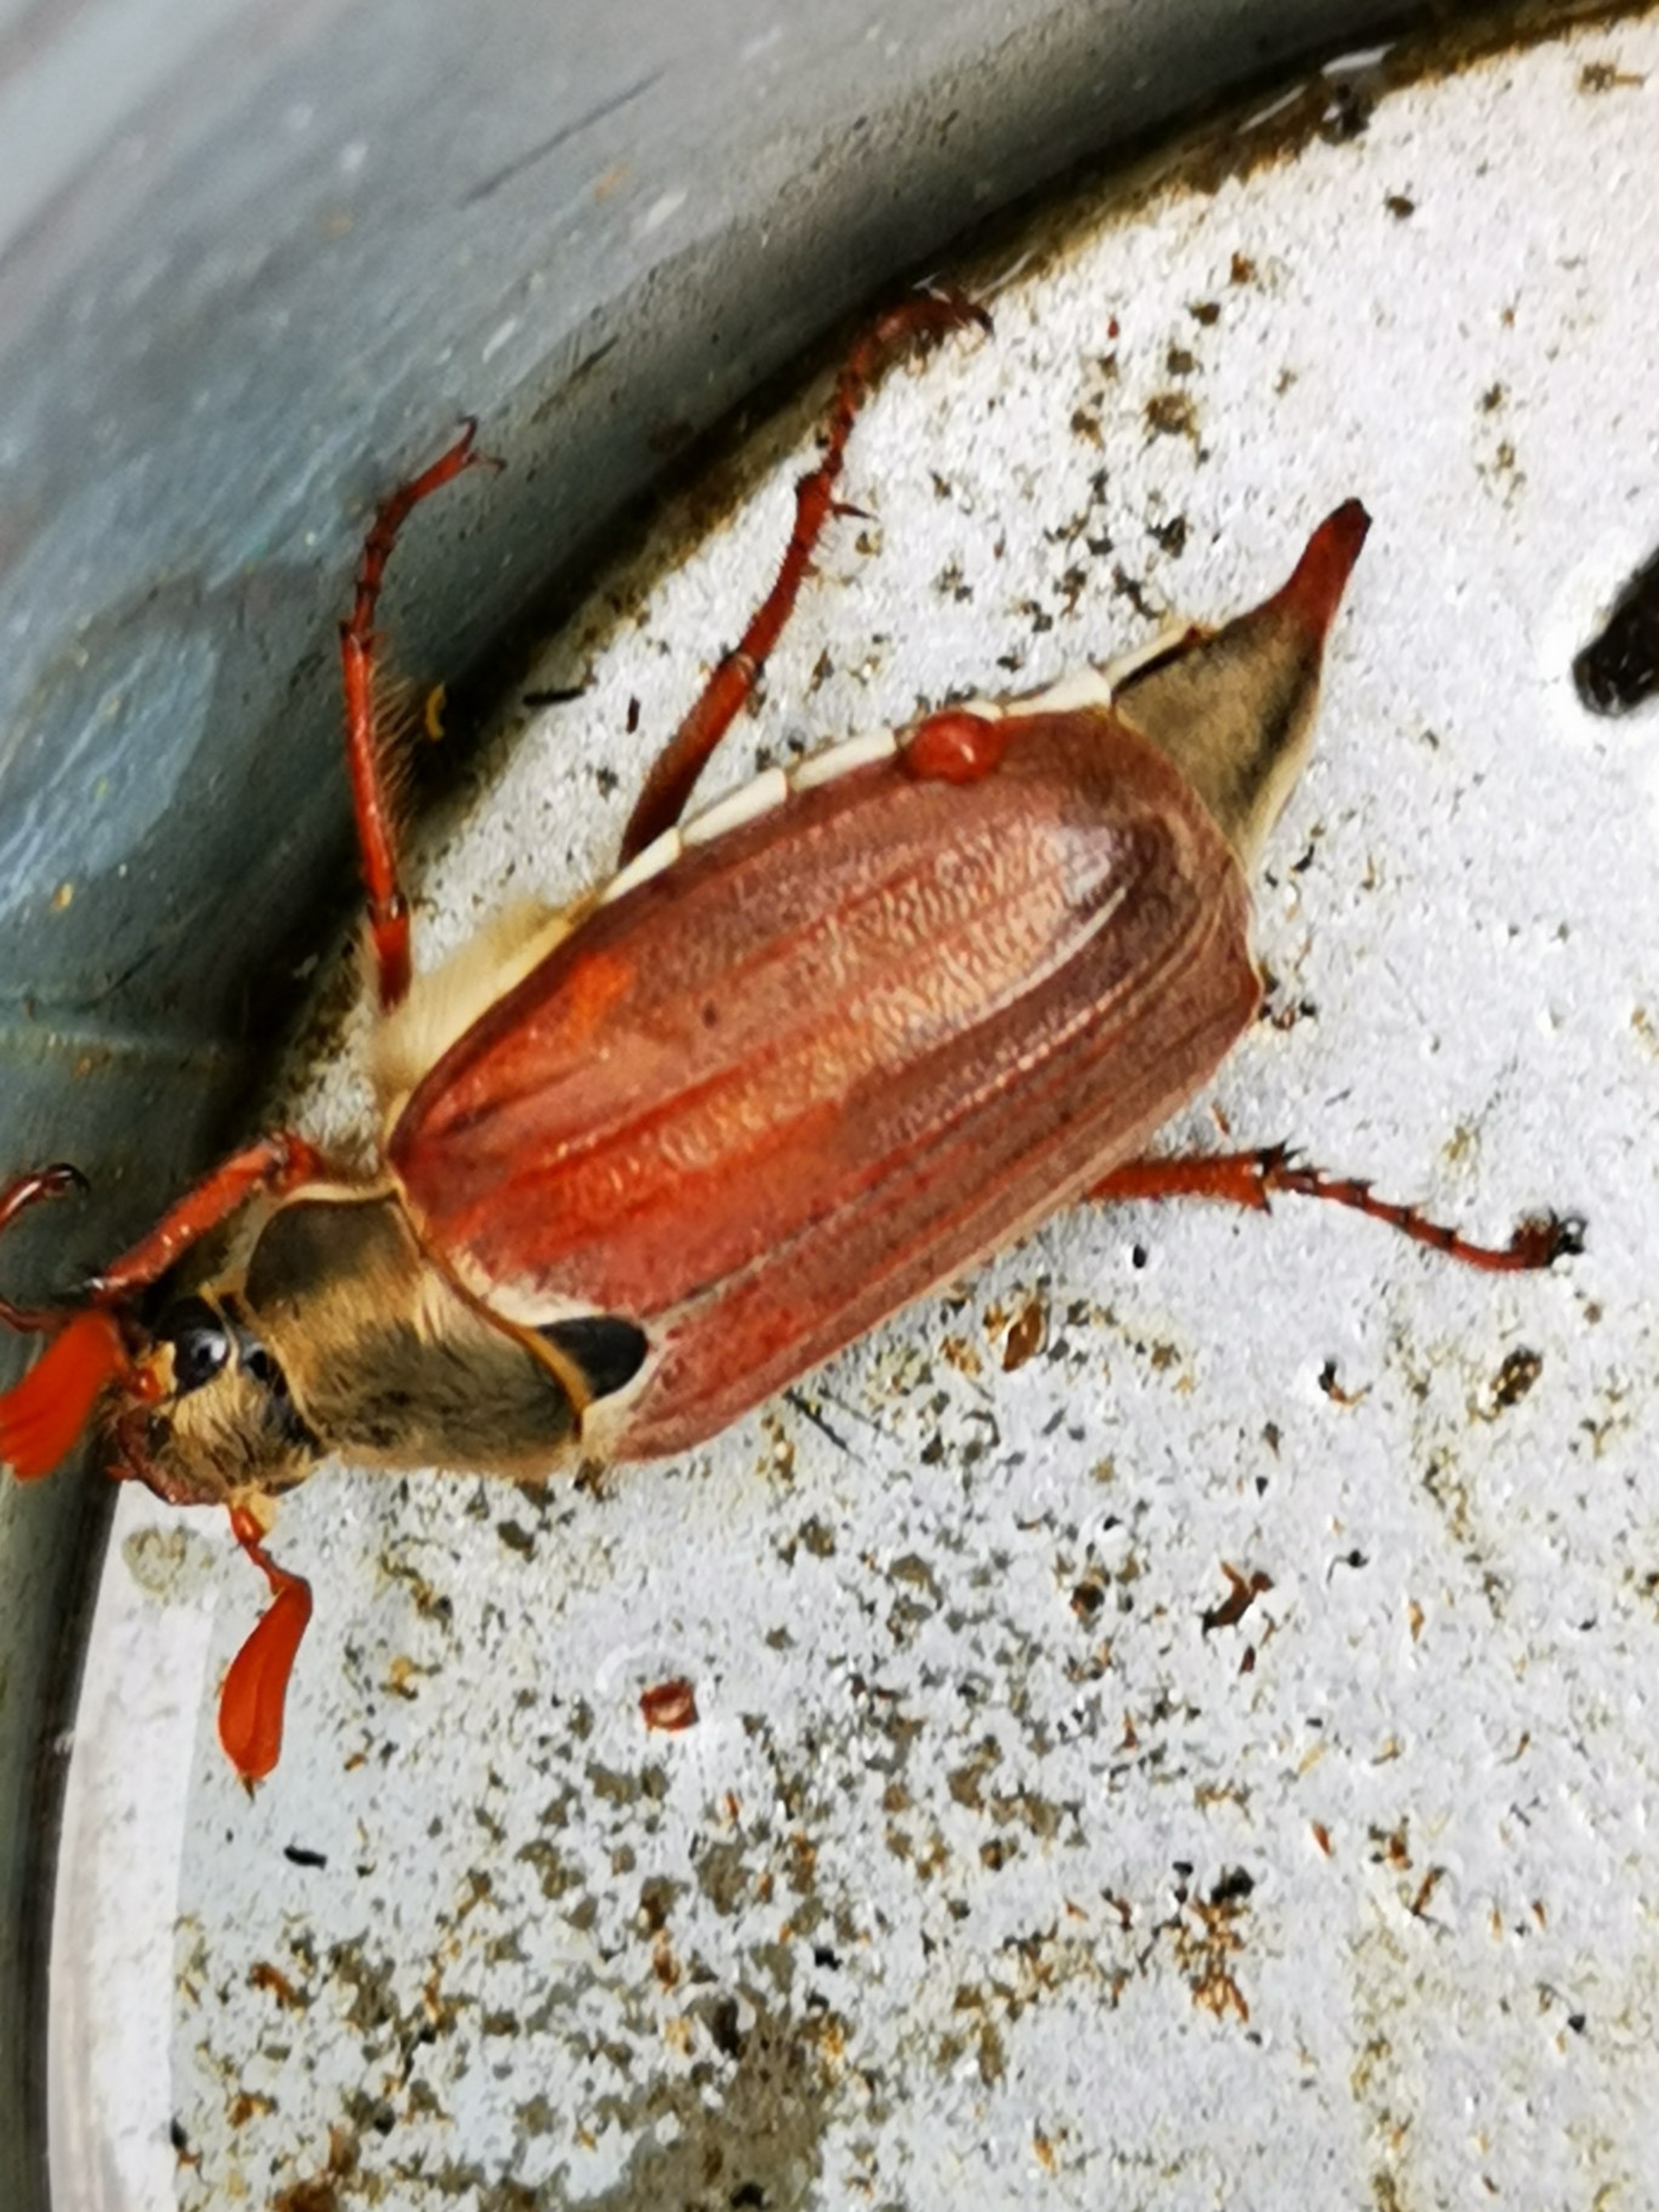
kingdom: Animalia
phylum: Arthropoda
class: Insecta
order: Coleoptera
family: Scarabaeidae
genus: Melolontha
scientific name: Melolontha melolontha
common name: Almindelig oldenborre
